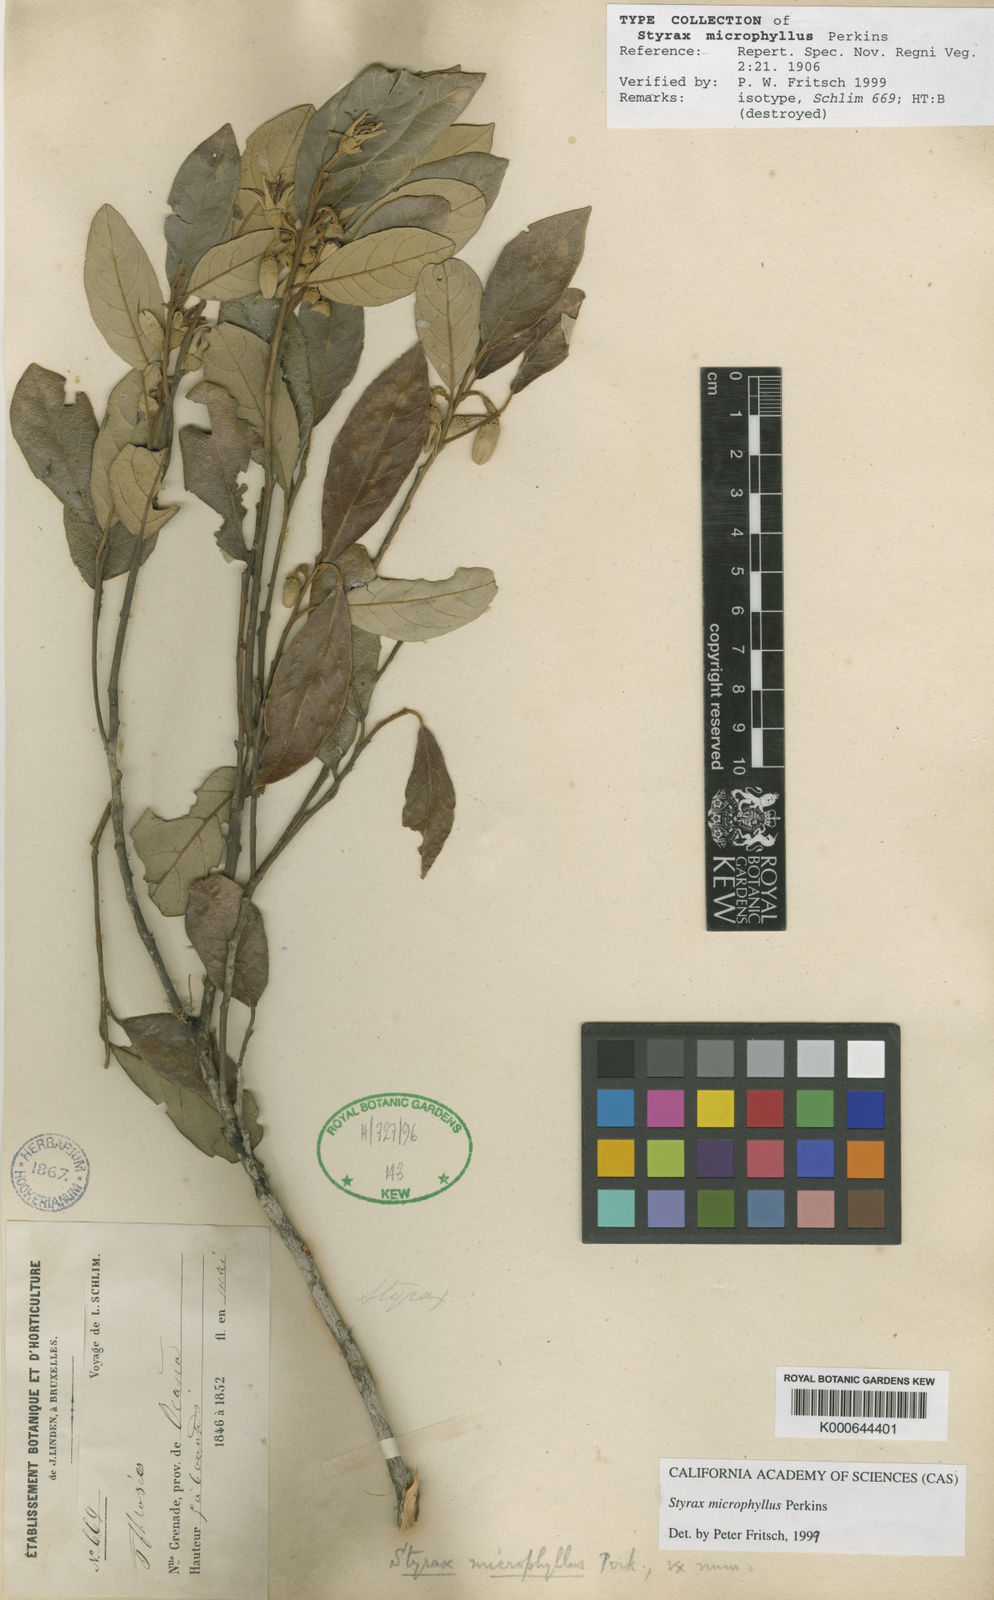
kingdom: Plantae
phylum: Tracheophyta
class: Magnoliopsida
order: Ericales
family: Styracaceae
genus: Styrax
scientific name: Styrax microphyllus
